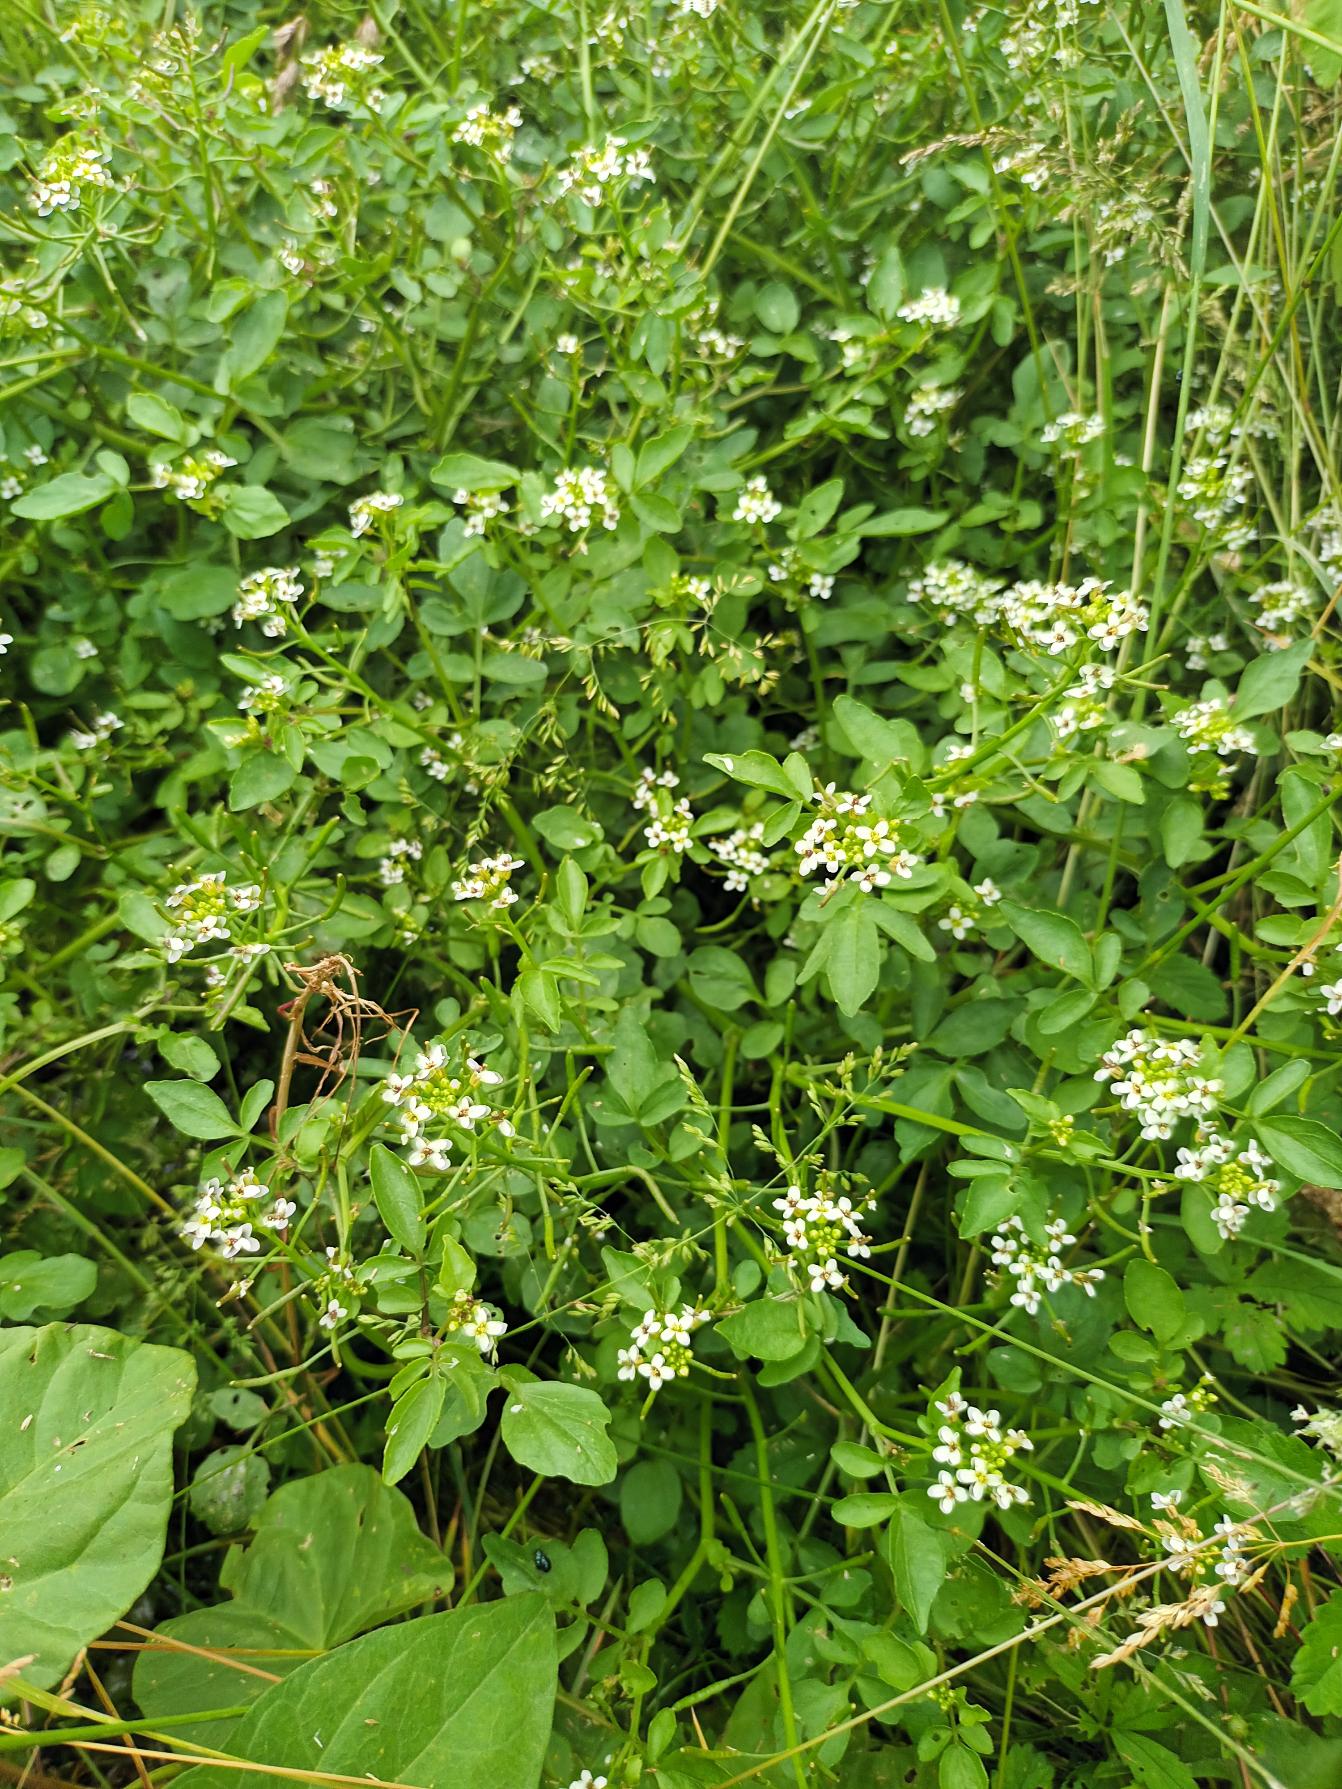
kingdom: Plantae
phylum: Tracheophyta
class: Magnoliopsida
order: Brassicales
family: Brassicaceae
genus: Nasturtium
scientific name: Nasturtium officinale
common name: Tykskulpet brøndkarse
